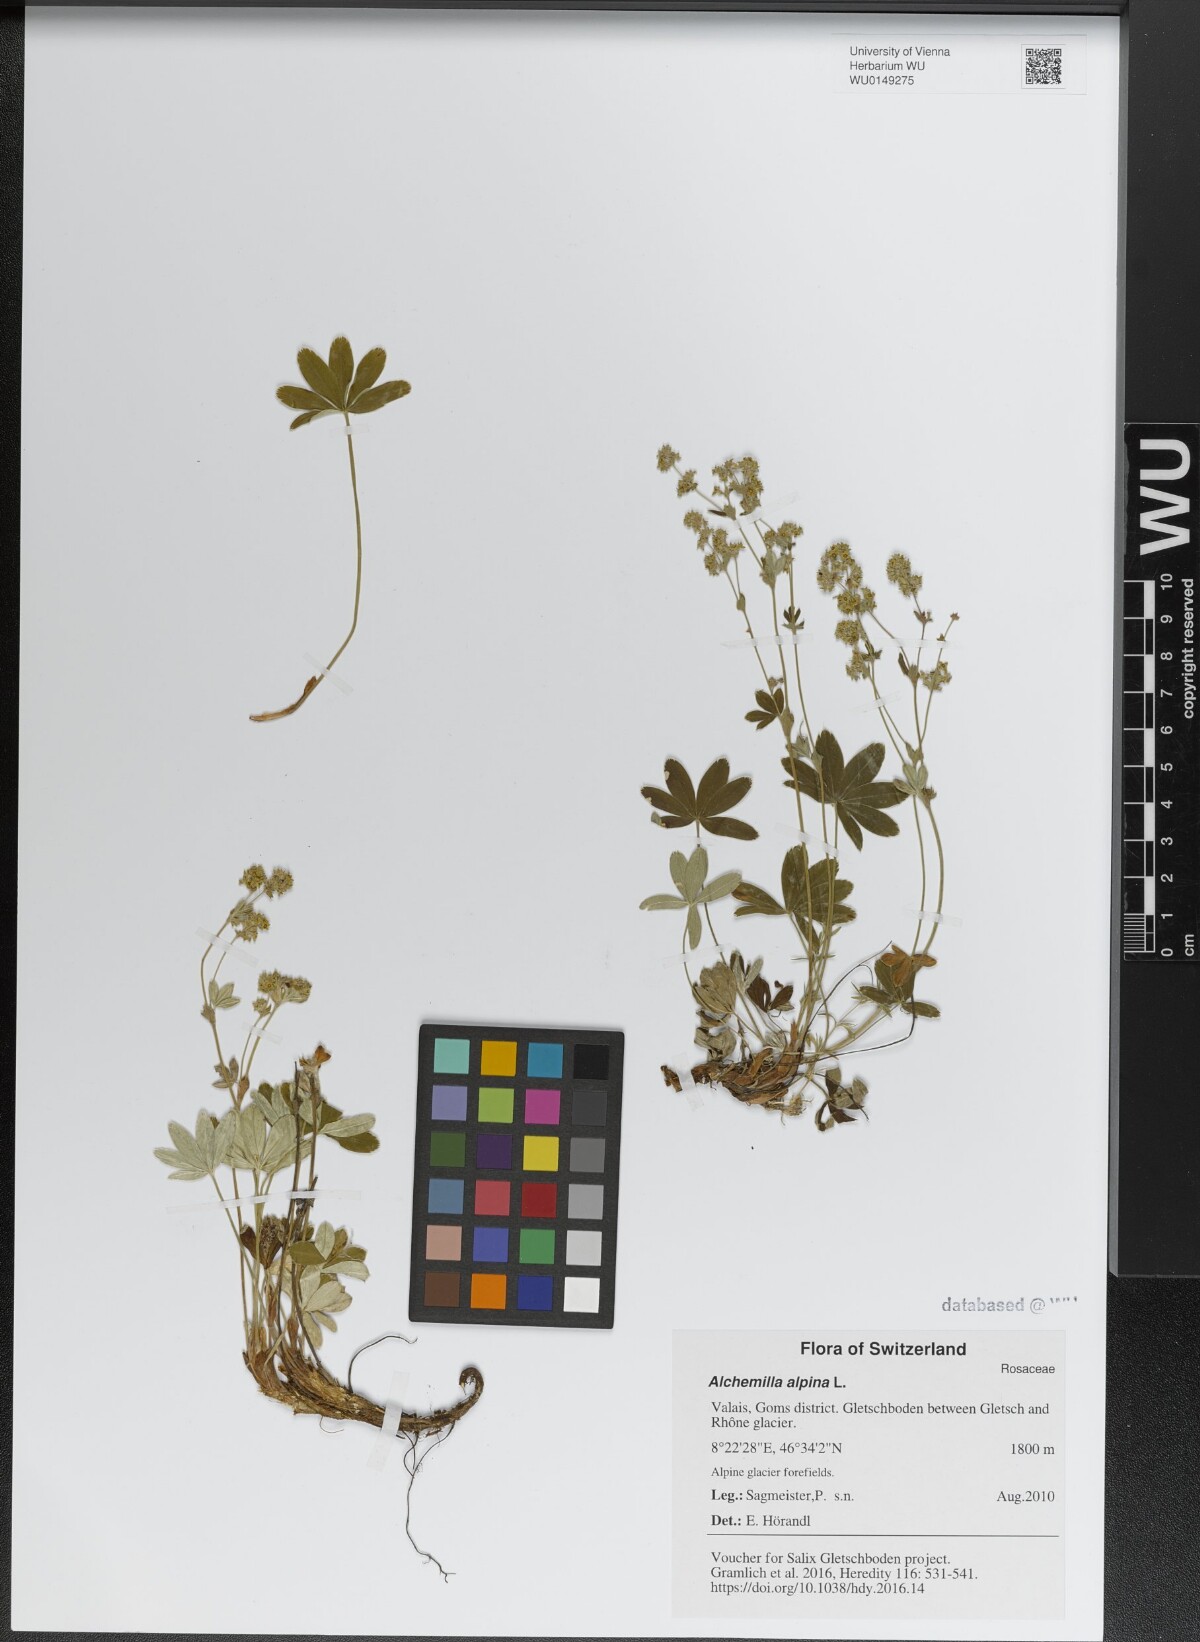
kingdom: Plantae
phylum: Tracheophyta
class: Magnoliopsida
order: Rosales
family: Rosaceae
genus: Alchemilla
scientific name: Alchemilla alpina
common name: Alpine lady's-mantle
